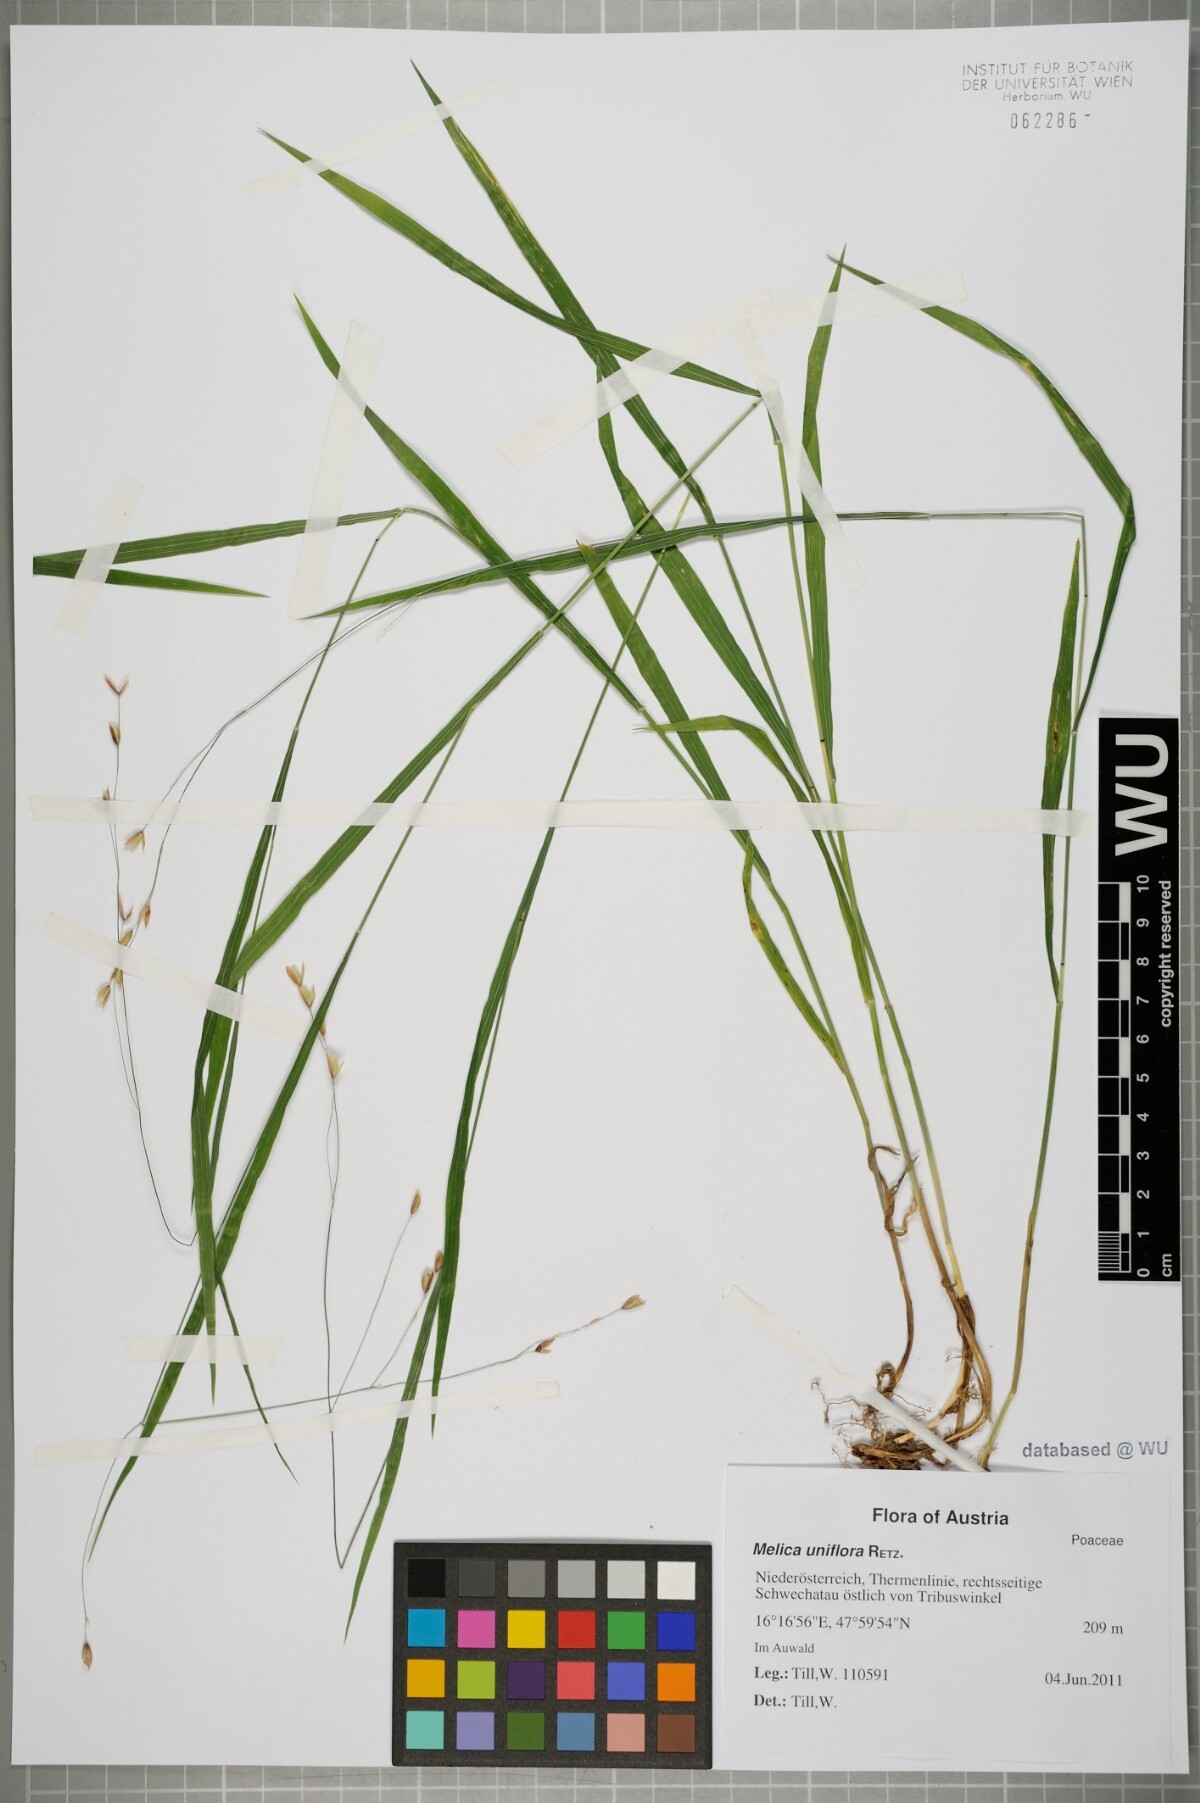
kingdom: Plantae
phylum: Tracheophyta
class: Liliopsida
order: Poales
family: Poaceae
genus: Melica
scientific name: Melica uniflora
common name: Wood melick
